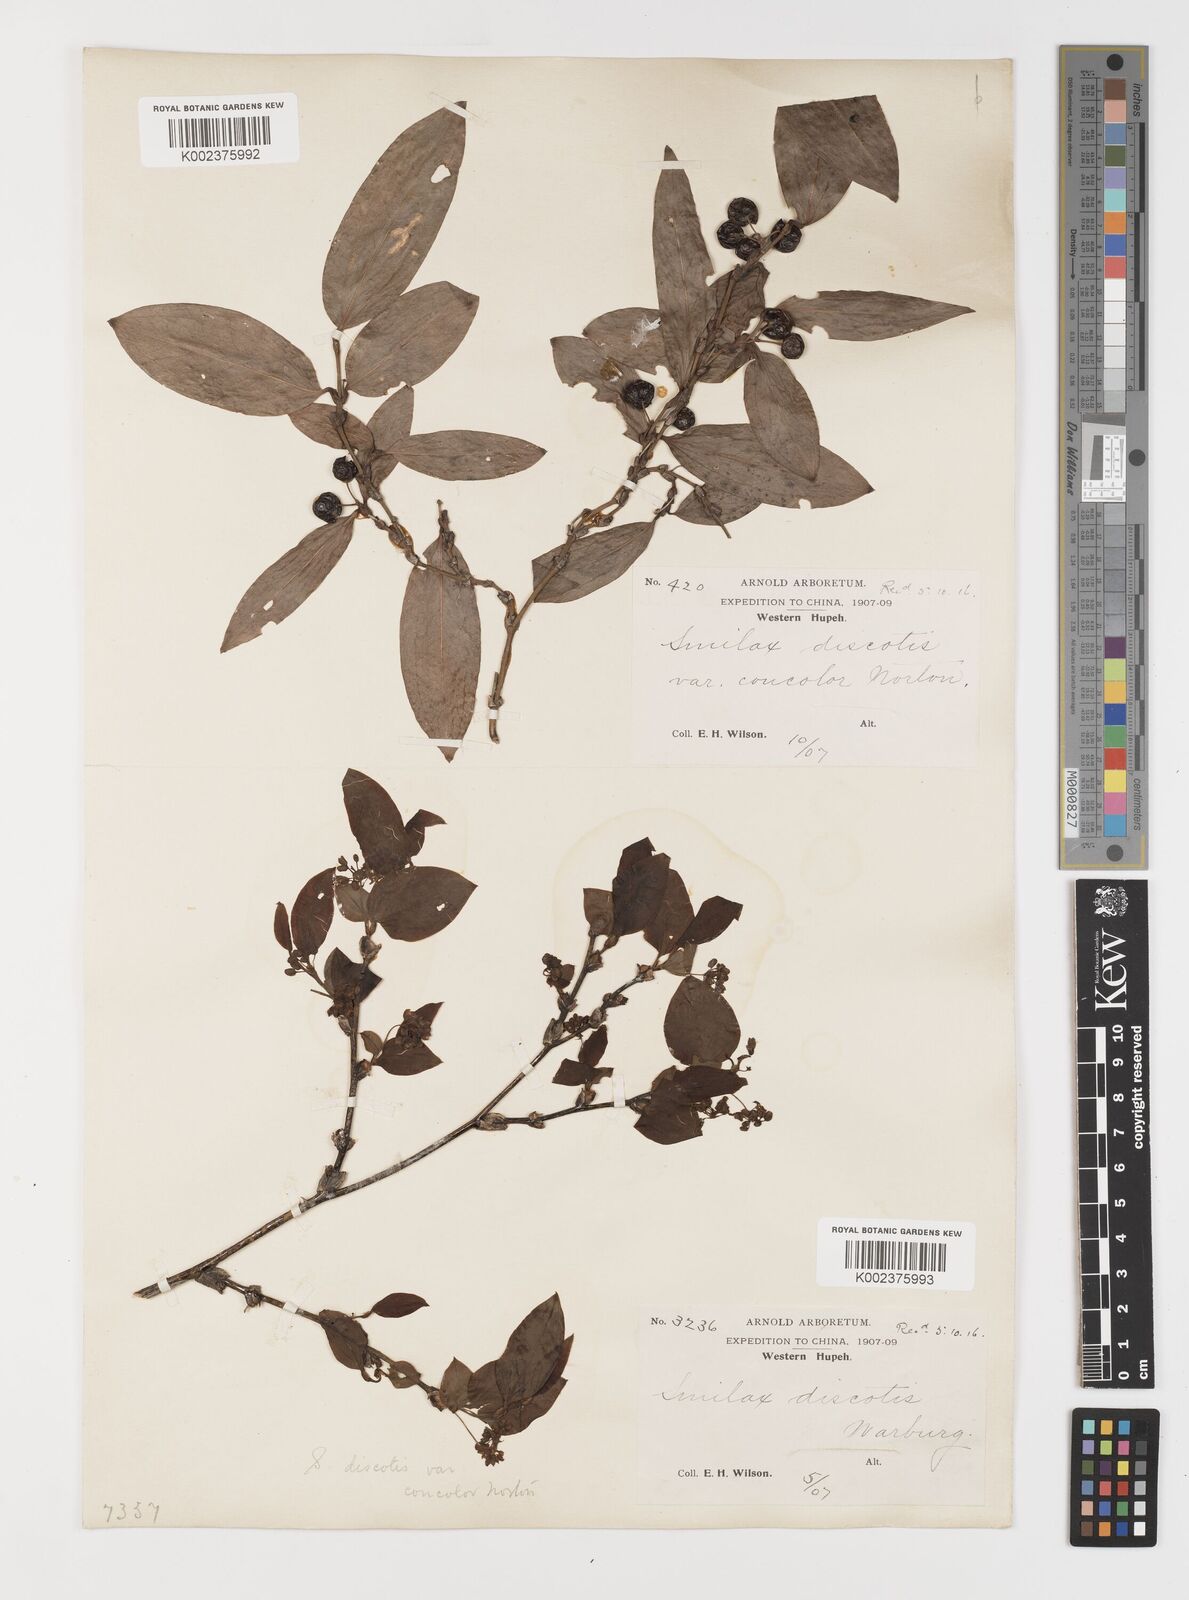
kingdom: Plantae
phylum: Tracheophyta
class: Liliopsida
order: Liliales
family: Smilacaceae
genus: Smilax
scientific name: Smilax discotis
